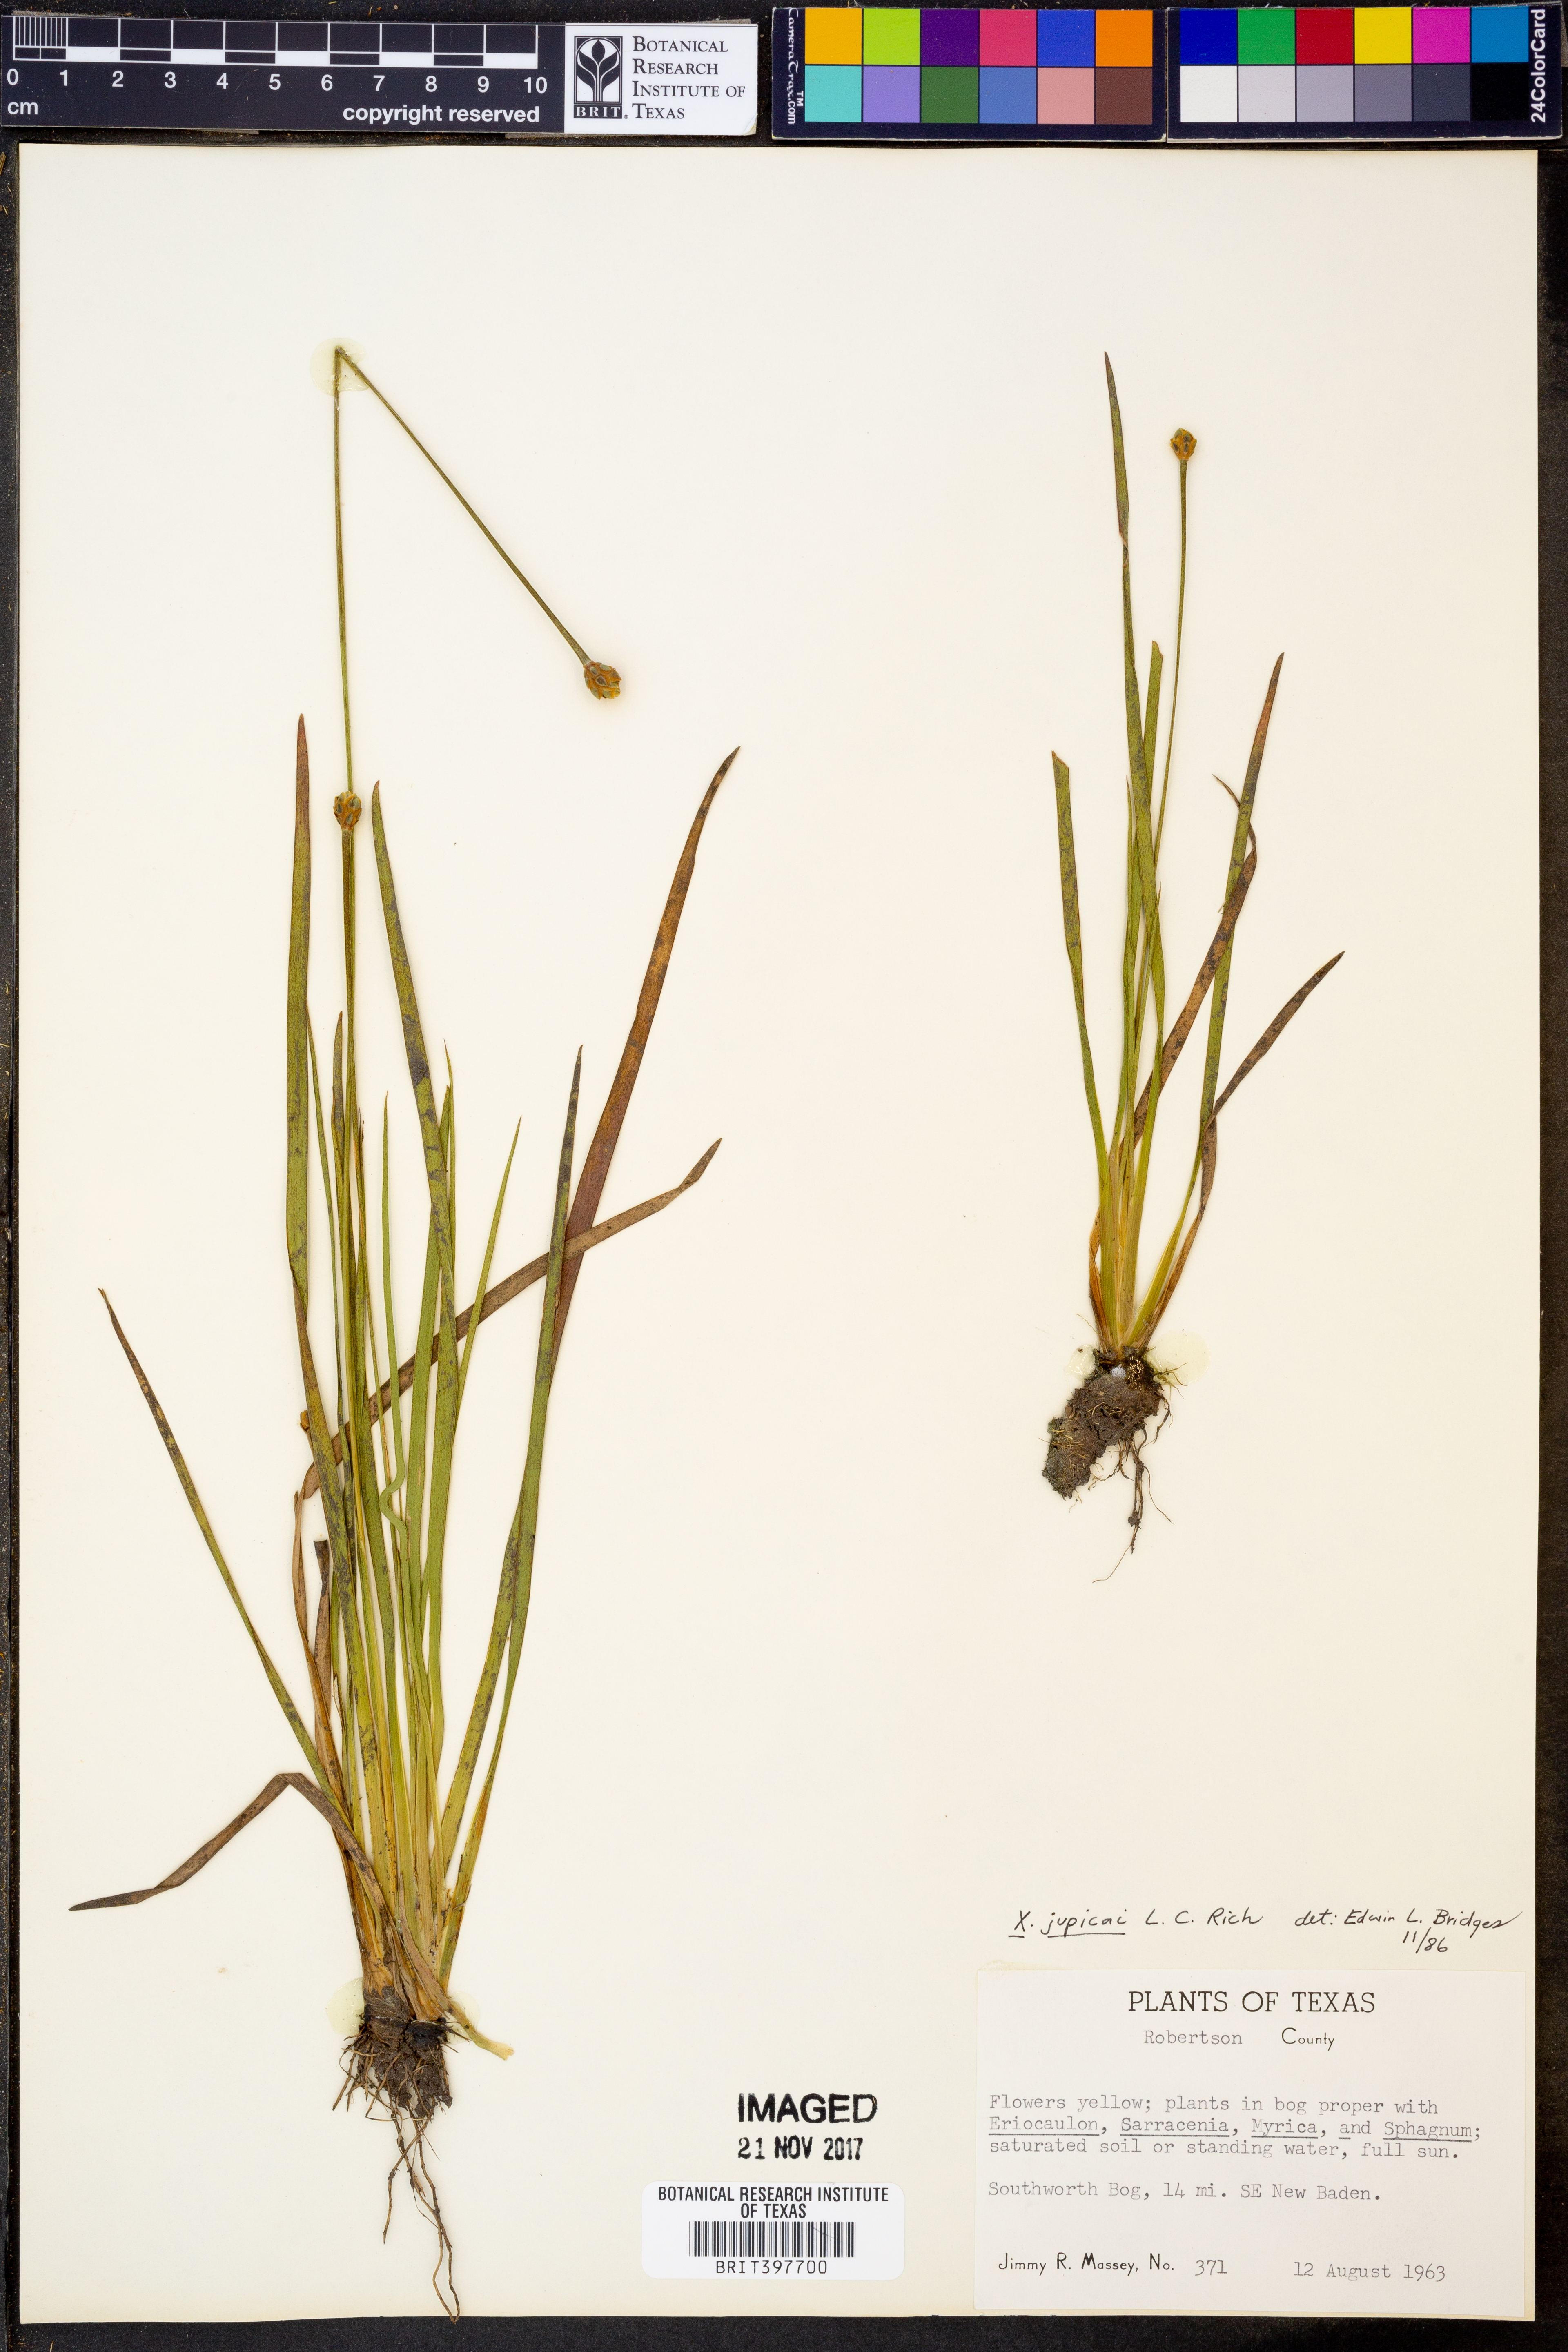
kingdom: Plantae
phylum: Tracheophyta
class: Liliopsida
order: Poales
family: Xyridaceae
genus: Xyris
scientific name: Xyris jupicai
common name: Richard's yelloweyed grass
